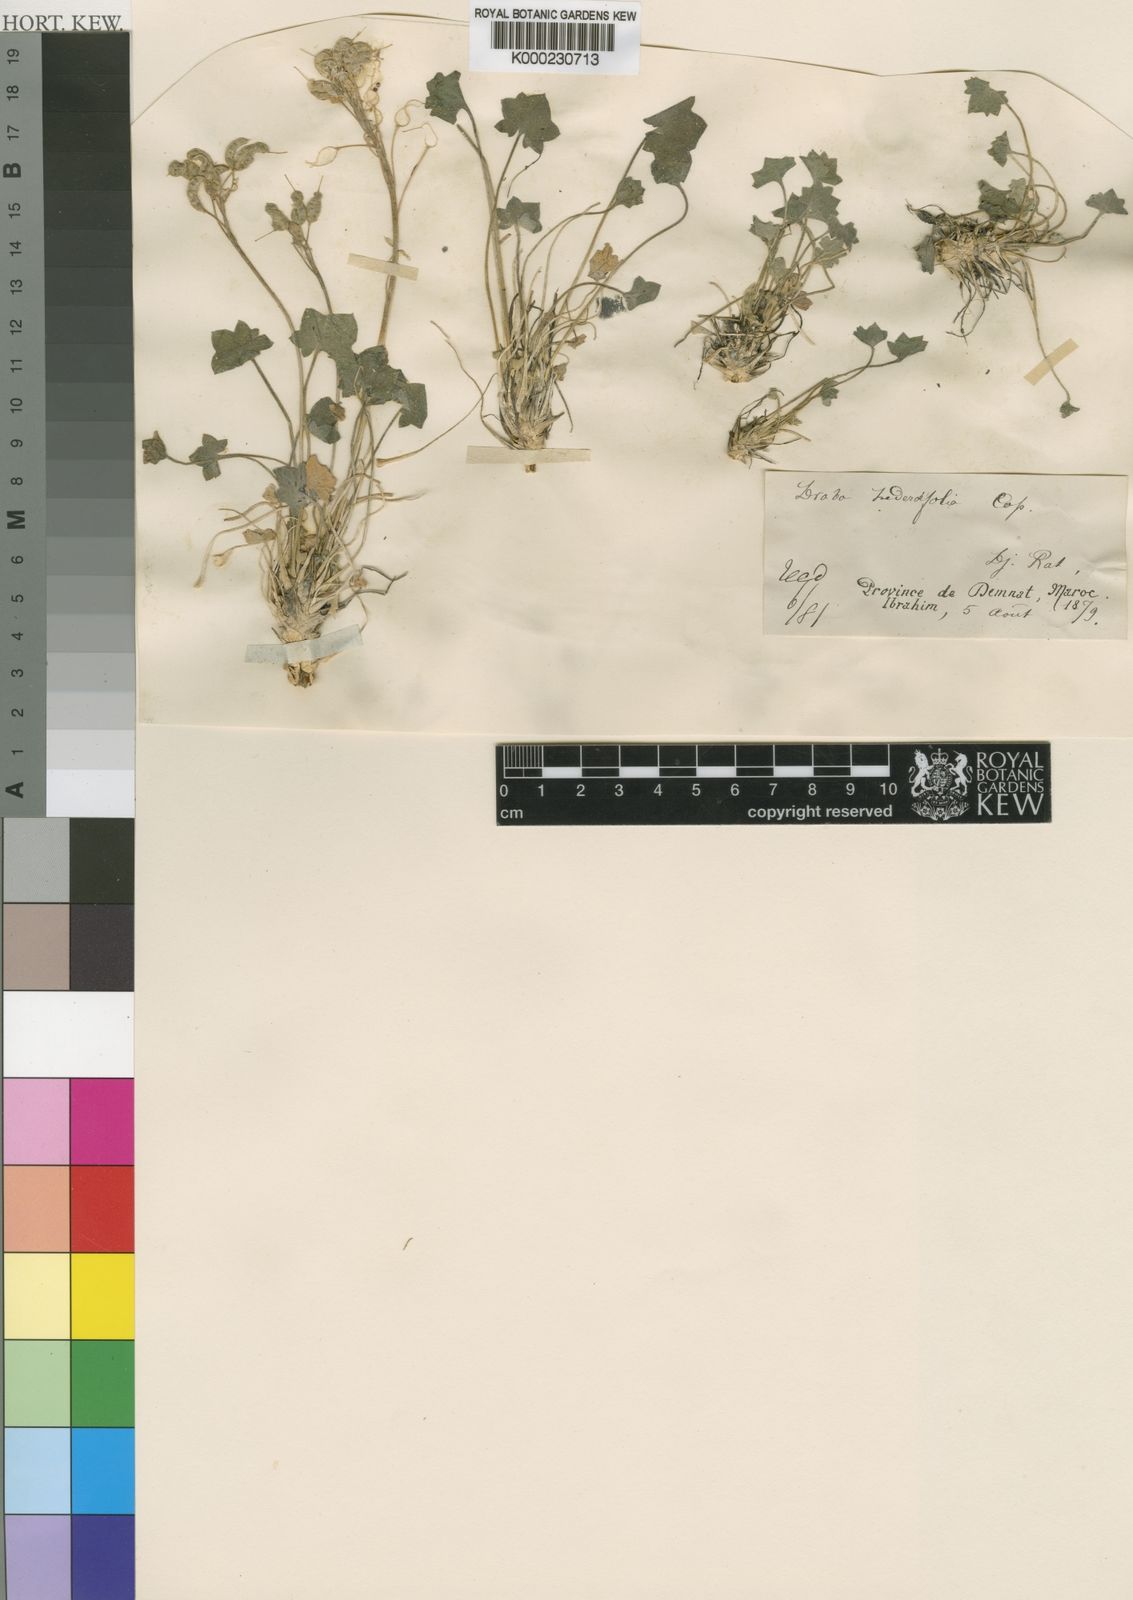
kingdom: Plantae
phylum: Tracheophyta
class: Magnoliopsida
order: Brassicales
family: Brassicaceae
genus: Draba
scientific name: Draba hederifolia
